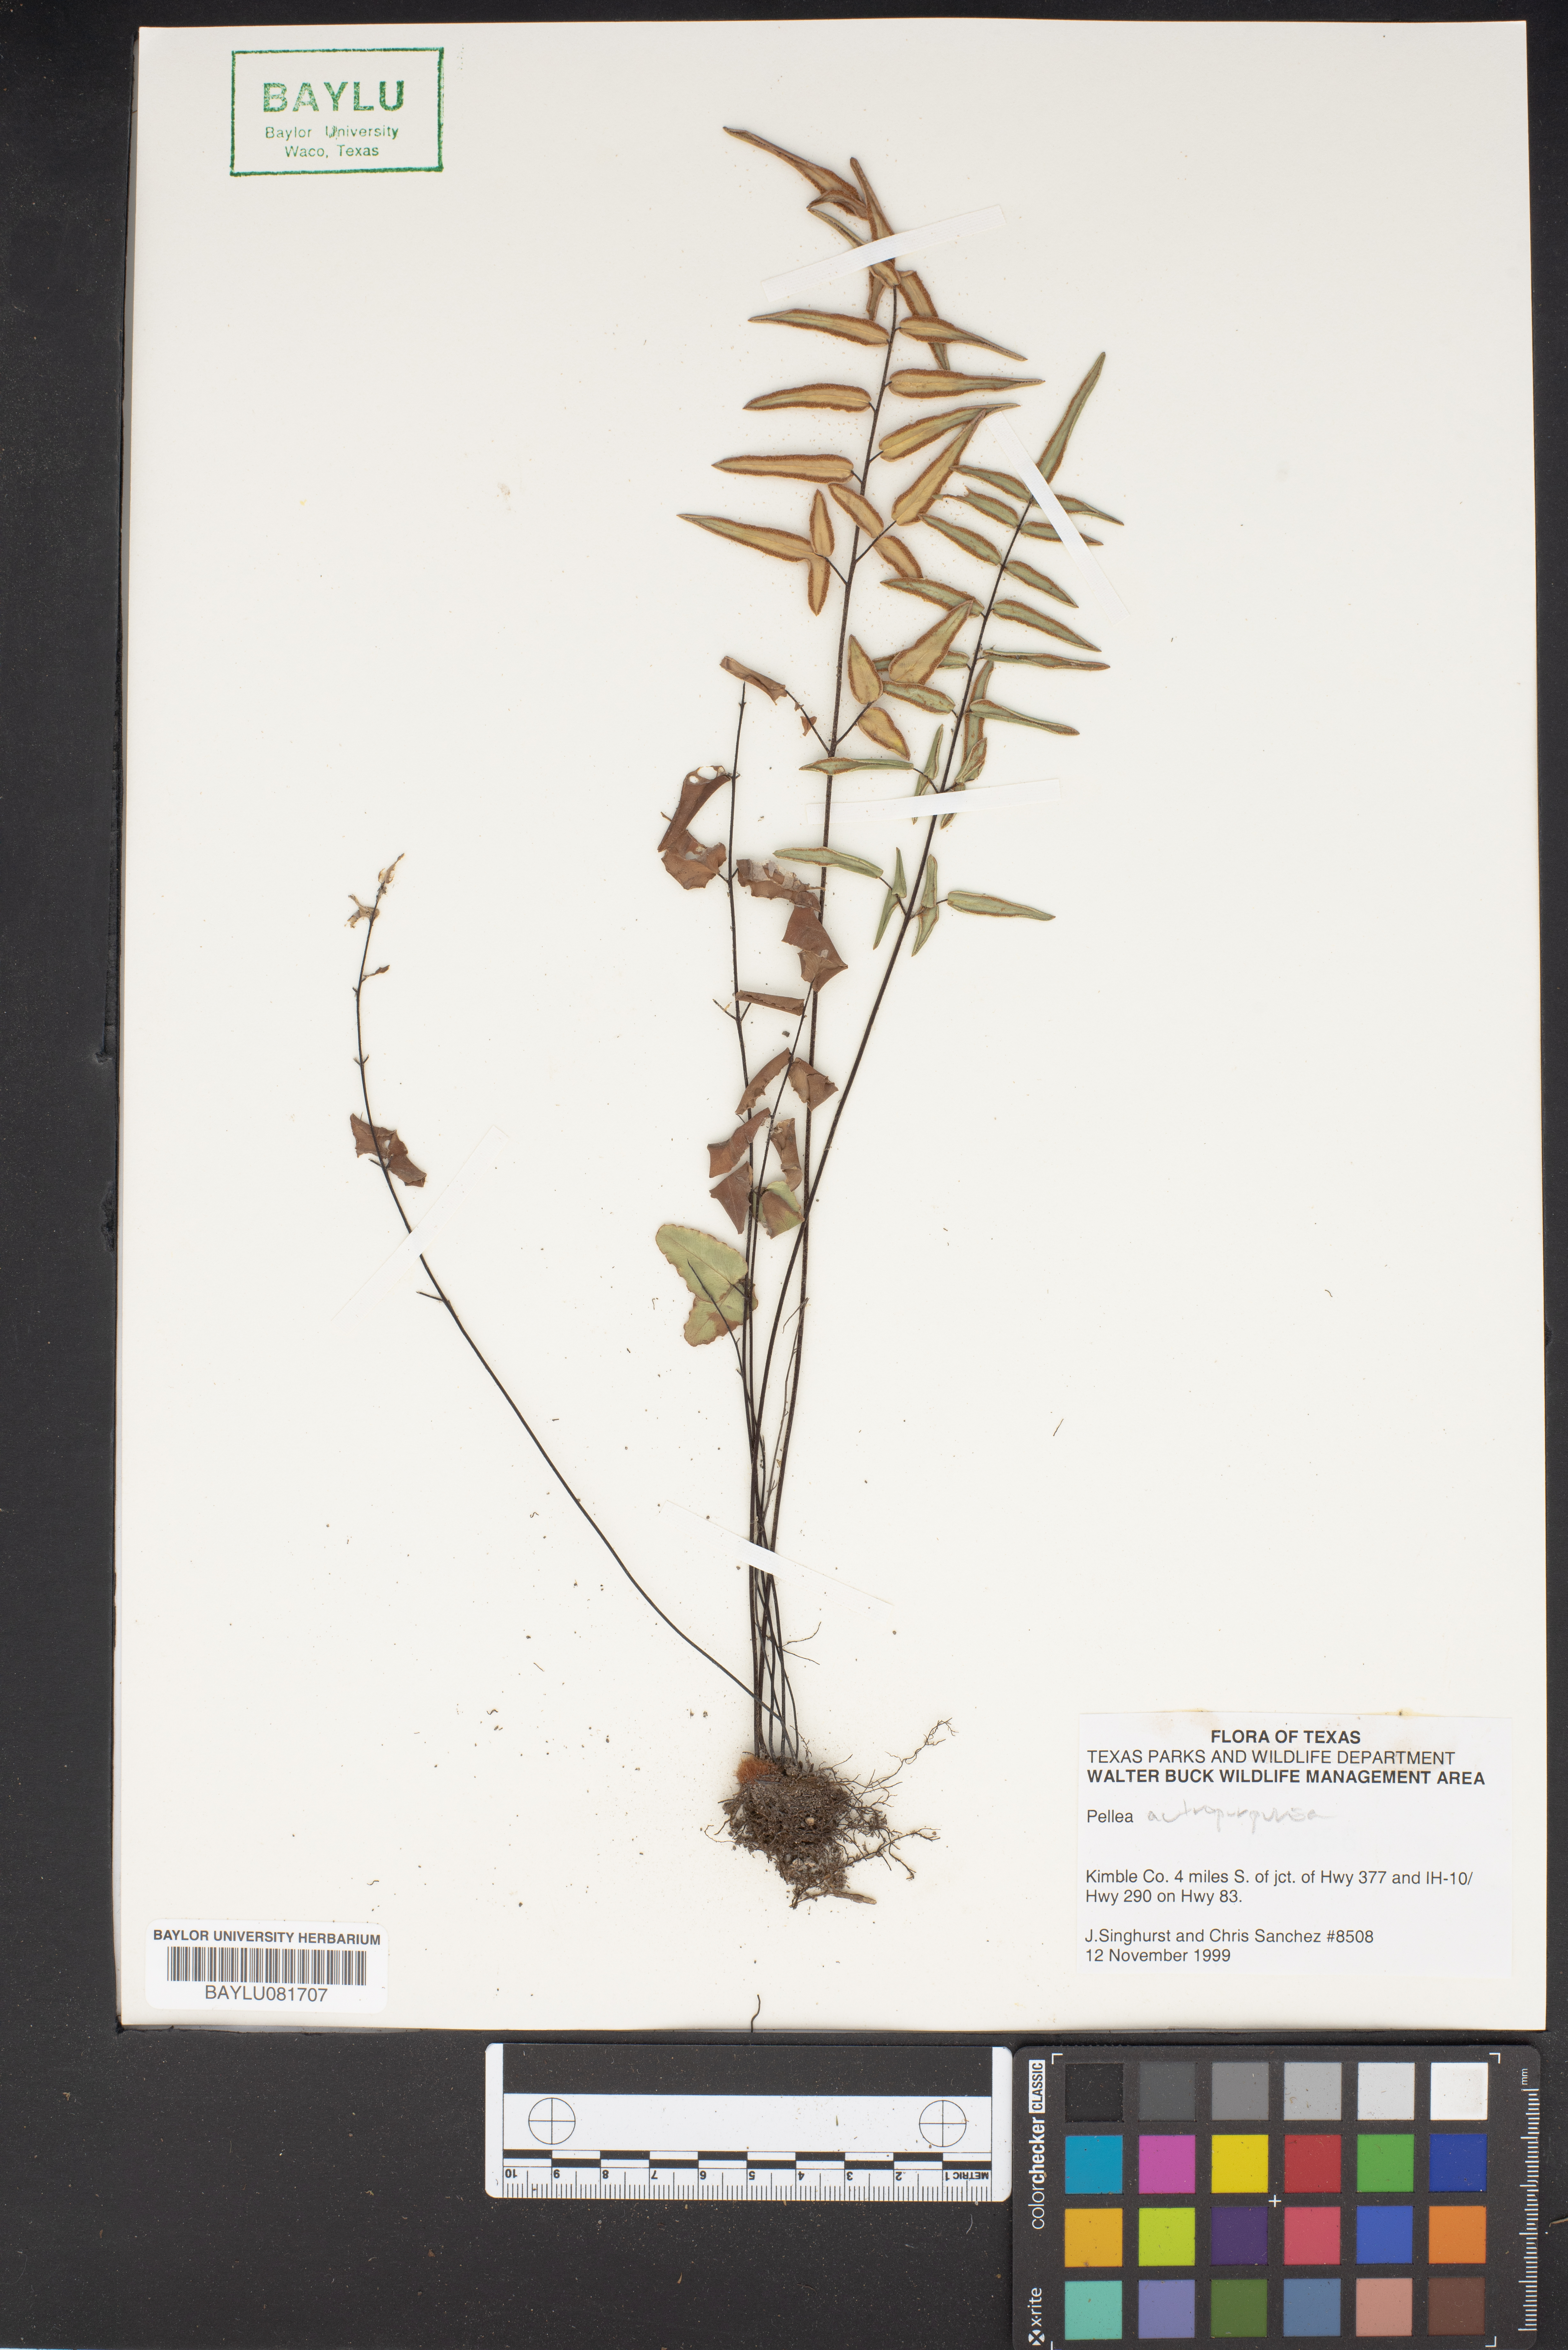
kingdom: Plantae
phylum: Tracheophyta
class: Polypodiopsida
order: Polypodiales
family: Pteridaceae
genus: Pellaea
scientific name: Pellaea atropurpurea
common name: Hairy cliffbrake
